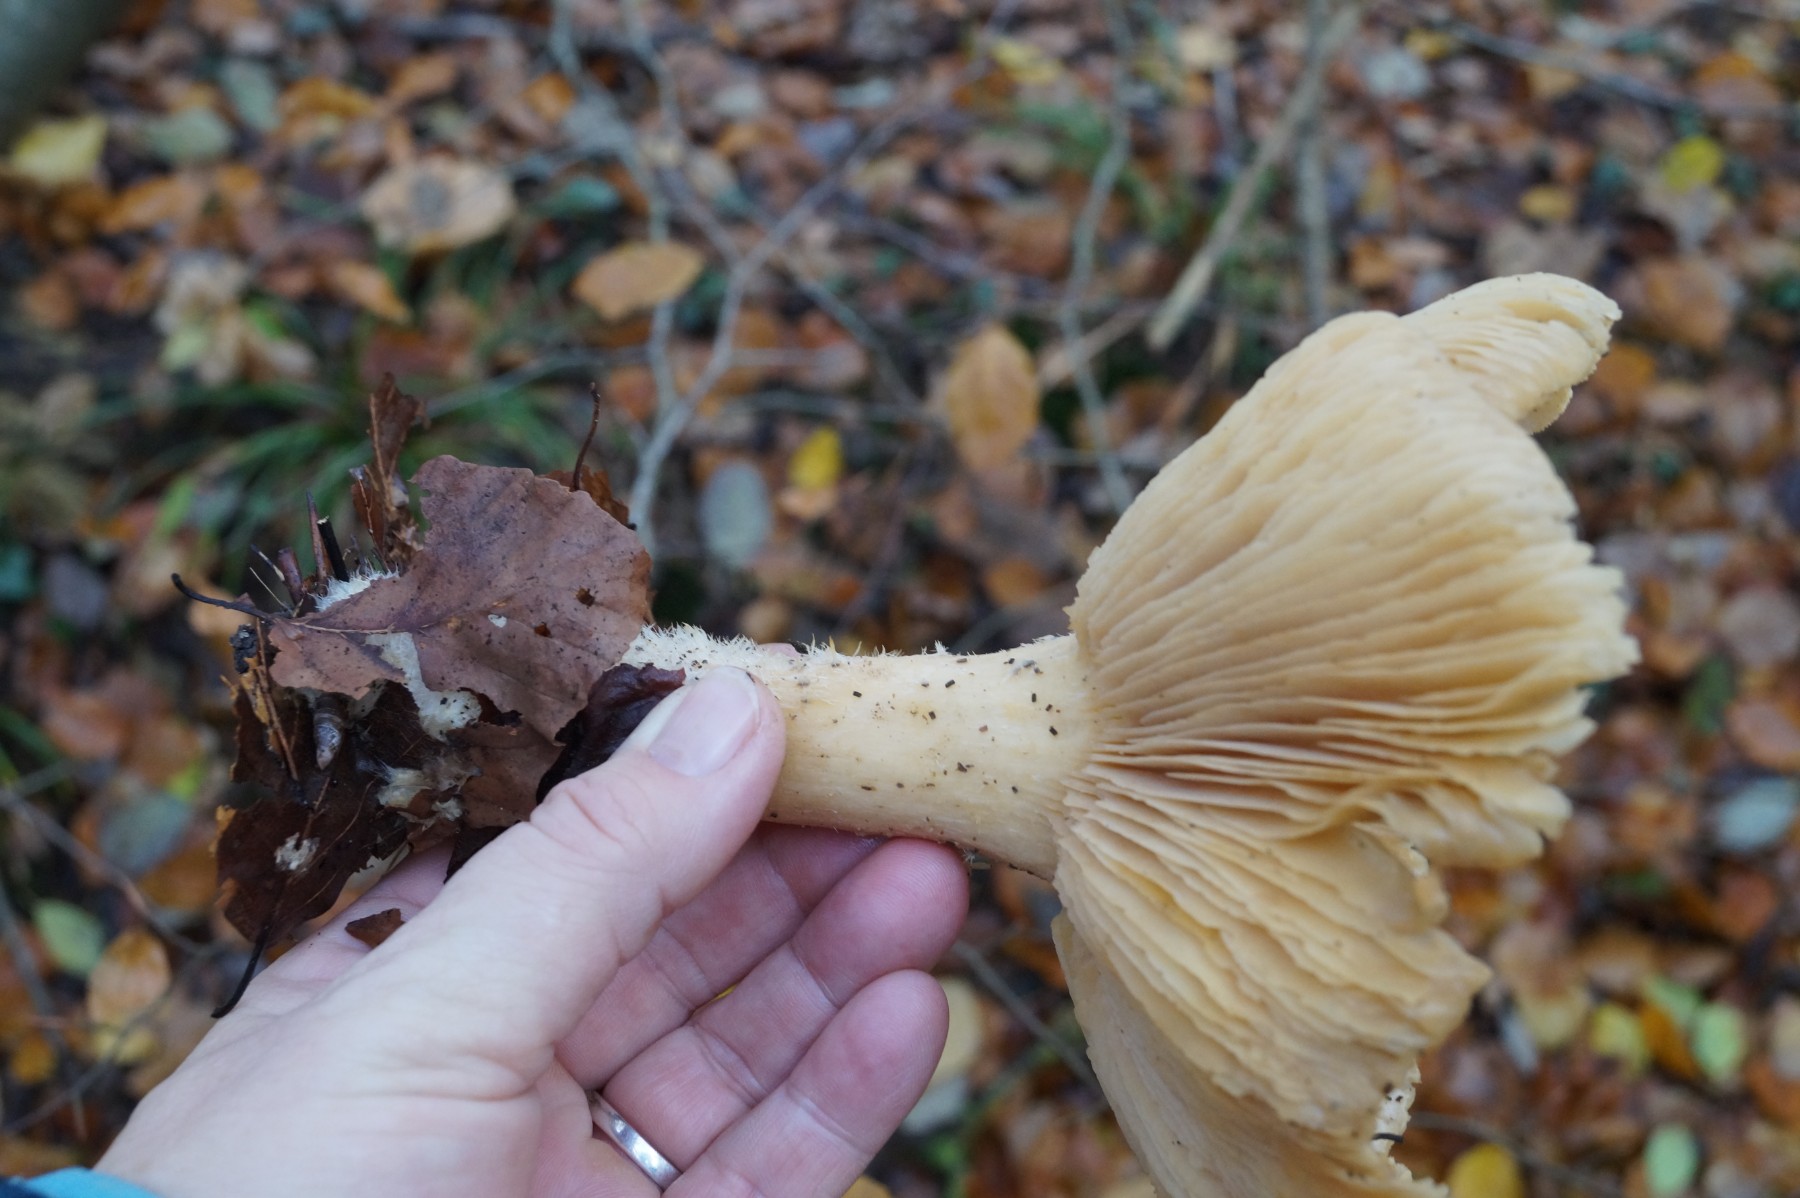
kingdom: Fungi
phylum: Basidiomycota
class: Agaricomycetes
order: Agaricales
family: Tricholomataceae
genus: Infundibulicybe
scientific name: Infundibulicybe geotropa
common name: stor tragthat
